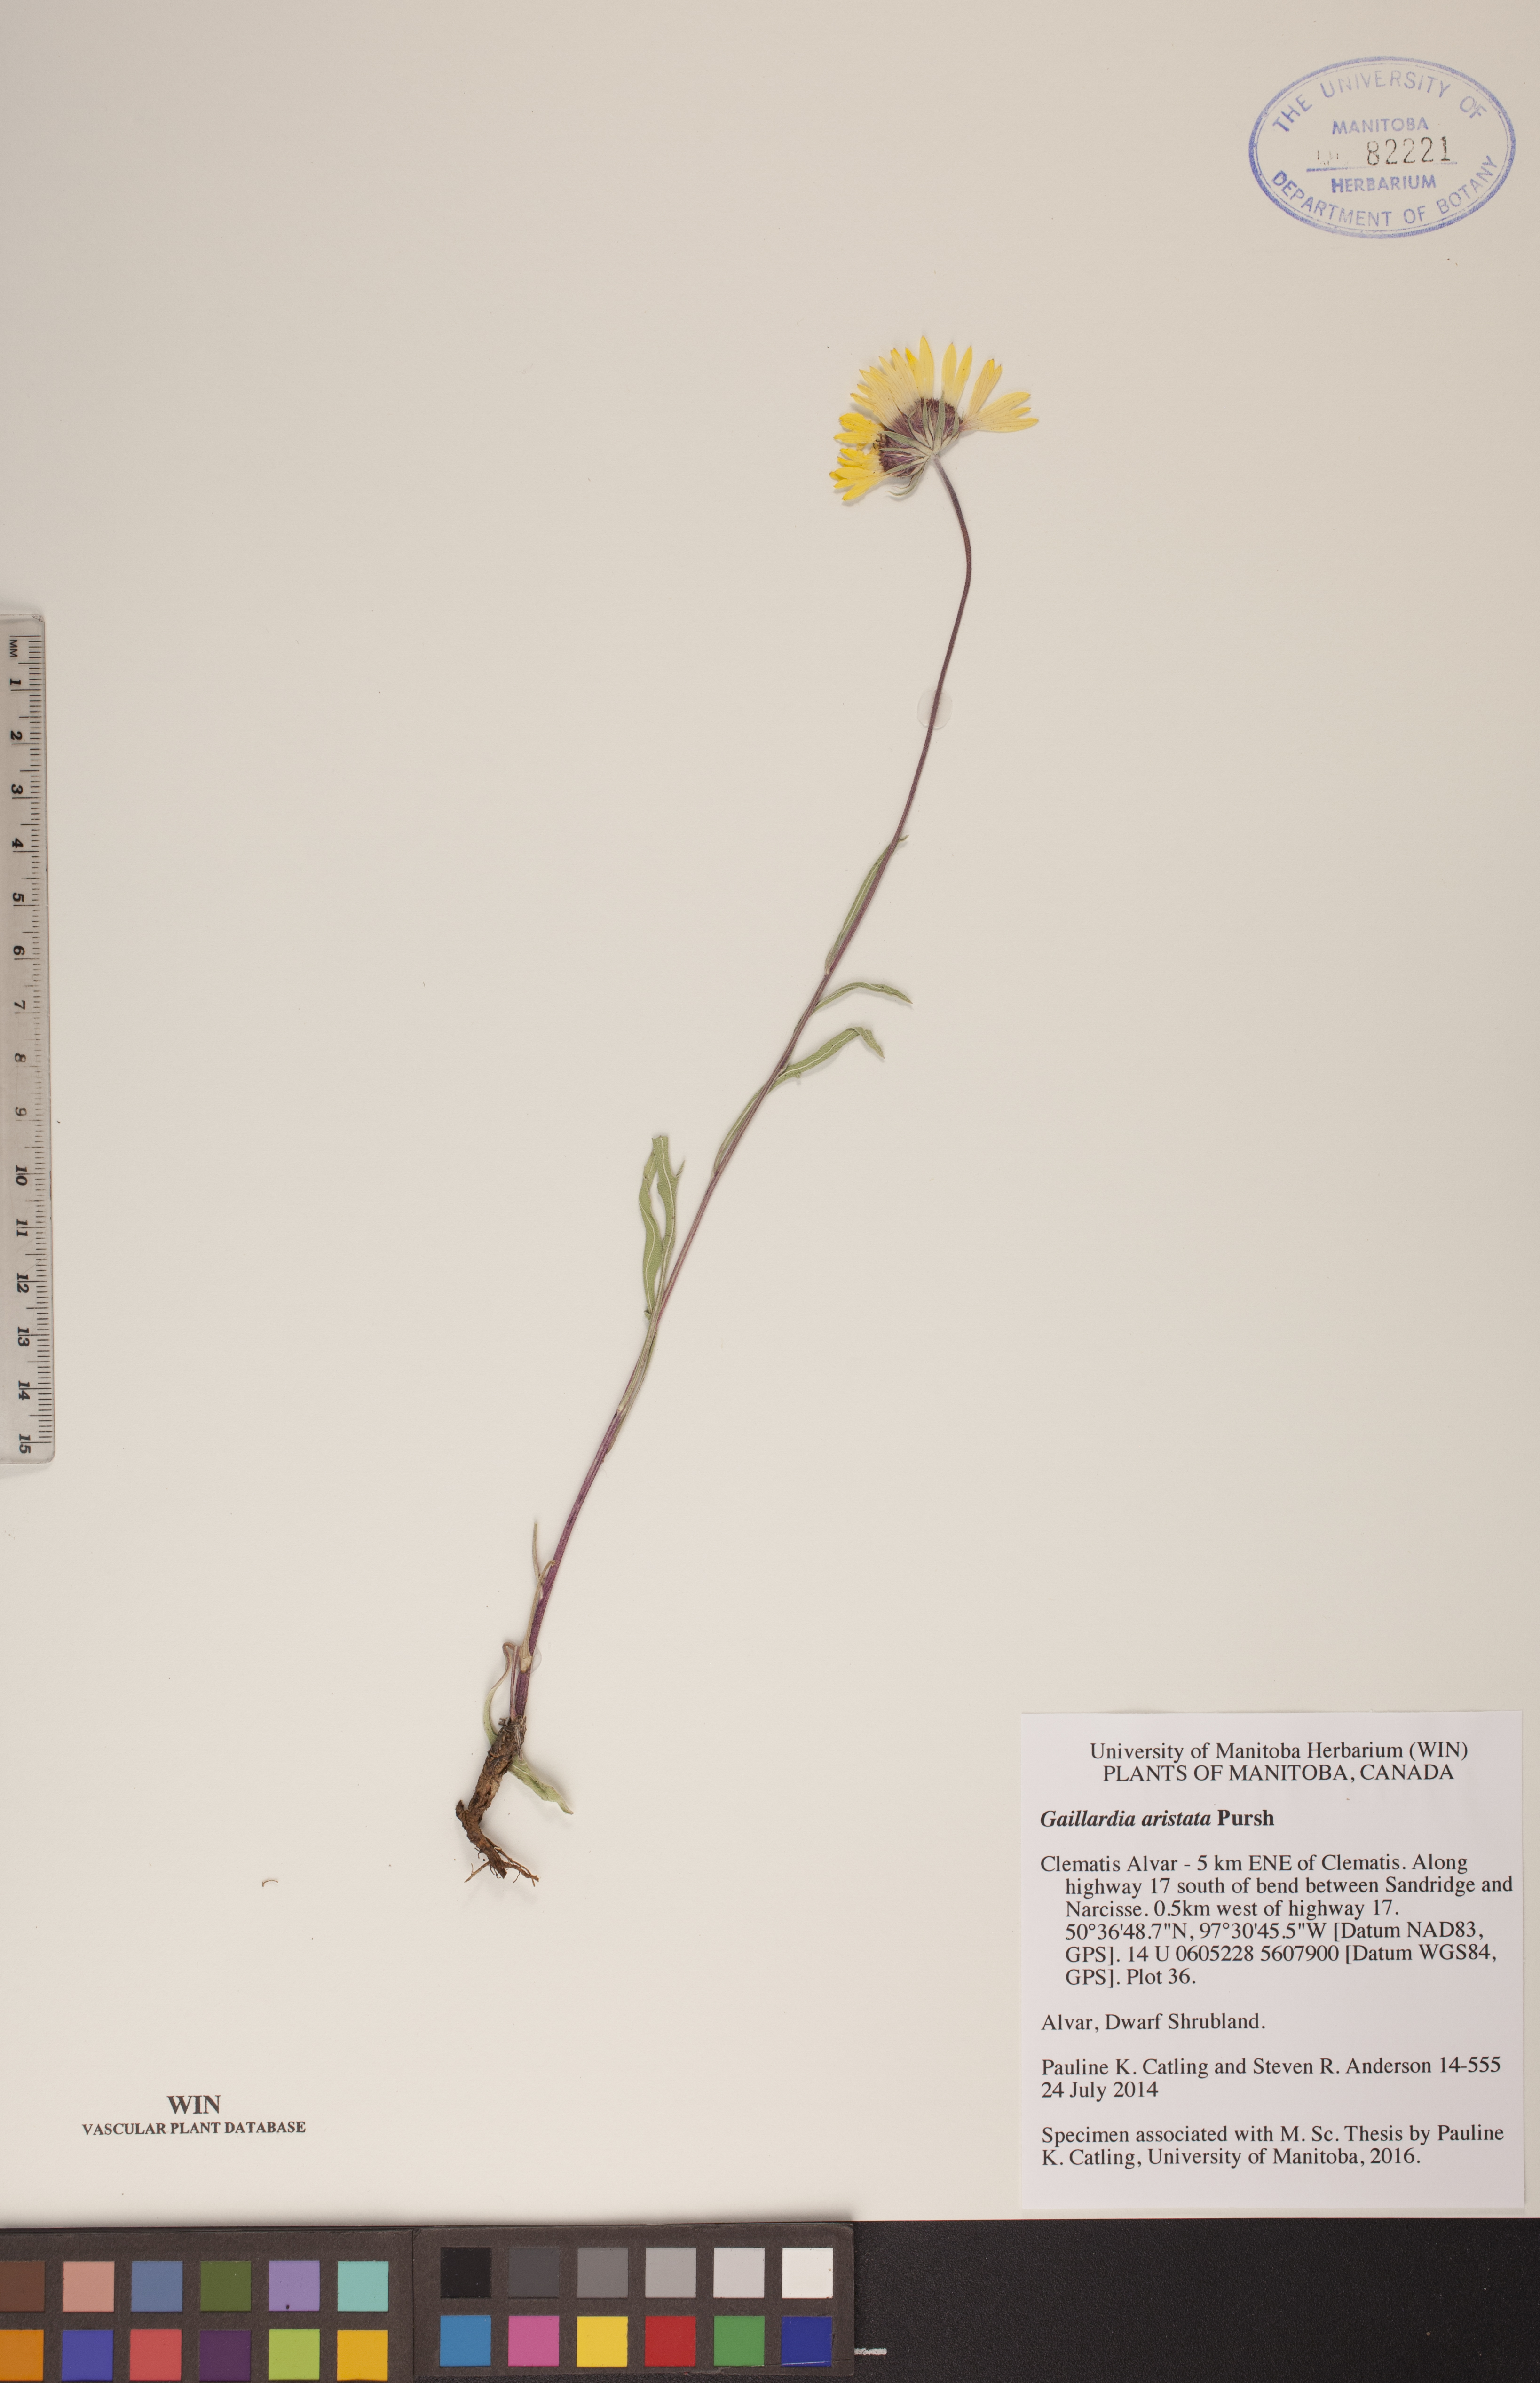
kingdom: Plantae
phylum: Tracheophyta
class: Magnoliopsida
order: Asterales
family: Asteraceae
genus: Gaillardia
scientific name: Gaillardia aristata
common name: Blanket-flower
